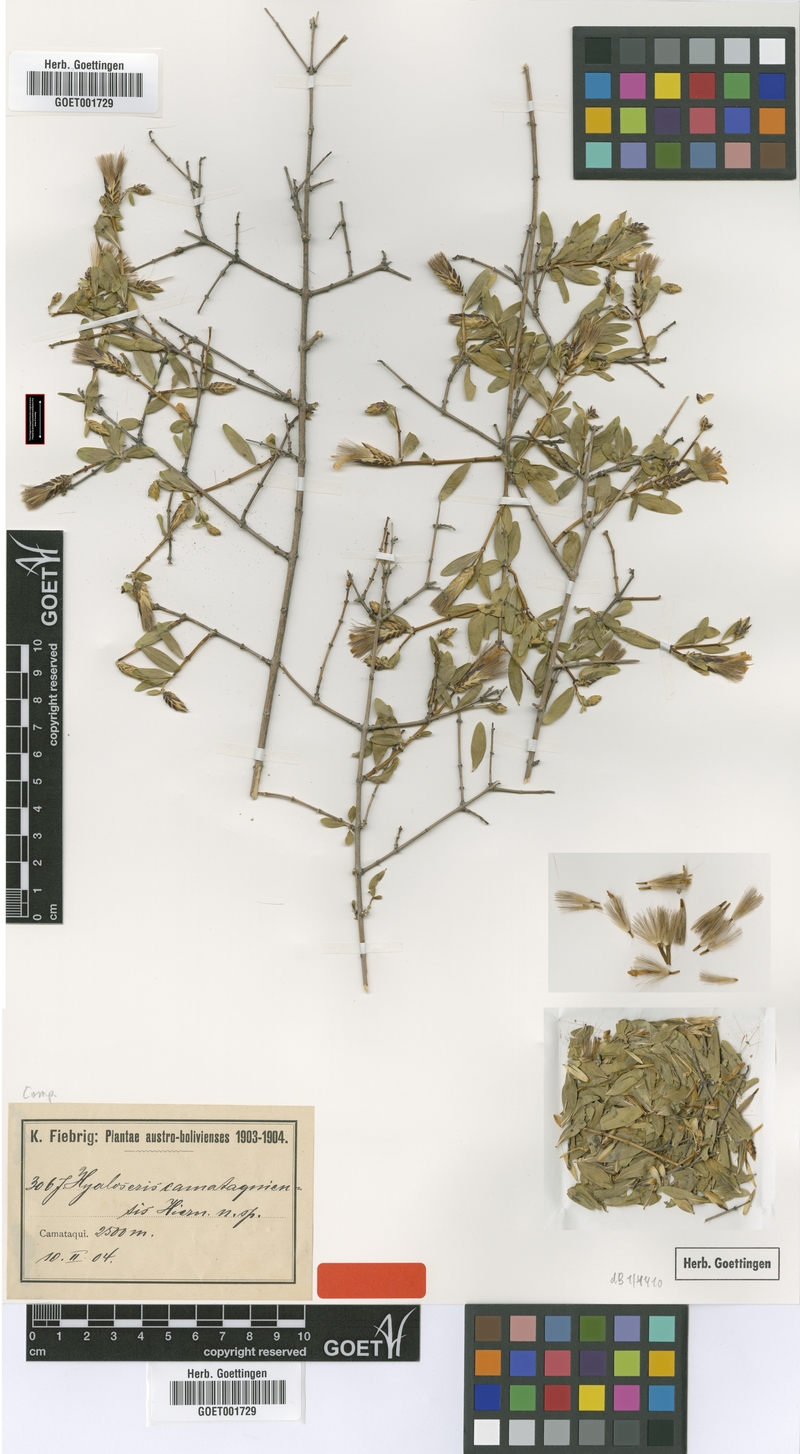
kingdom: Plantae
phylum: Tracheophyta
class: Magnoliopsida
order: Asterales
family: Asteraceae
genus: Hyaloseris
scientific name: Hyaloseris catamaquiensis
